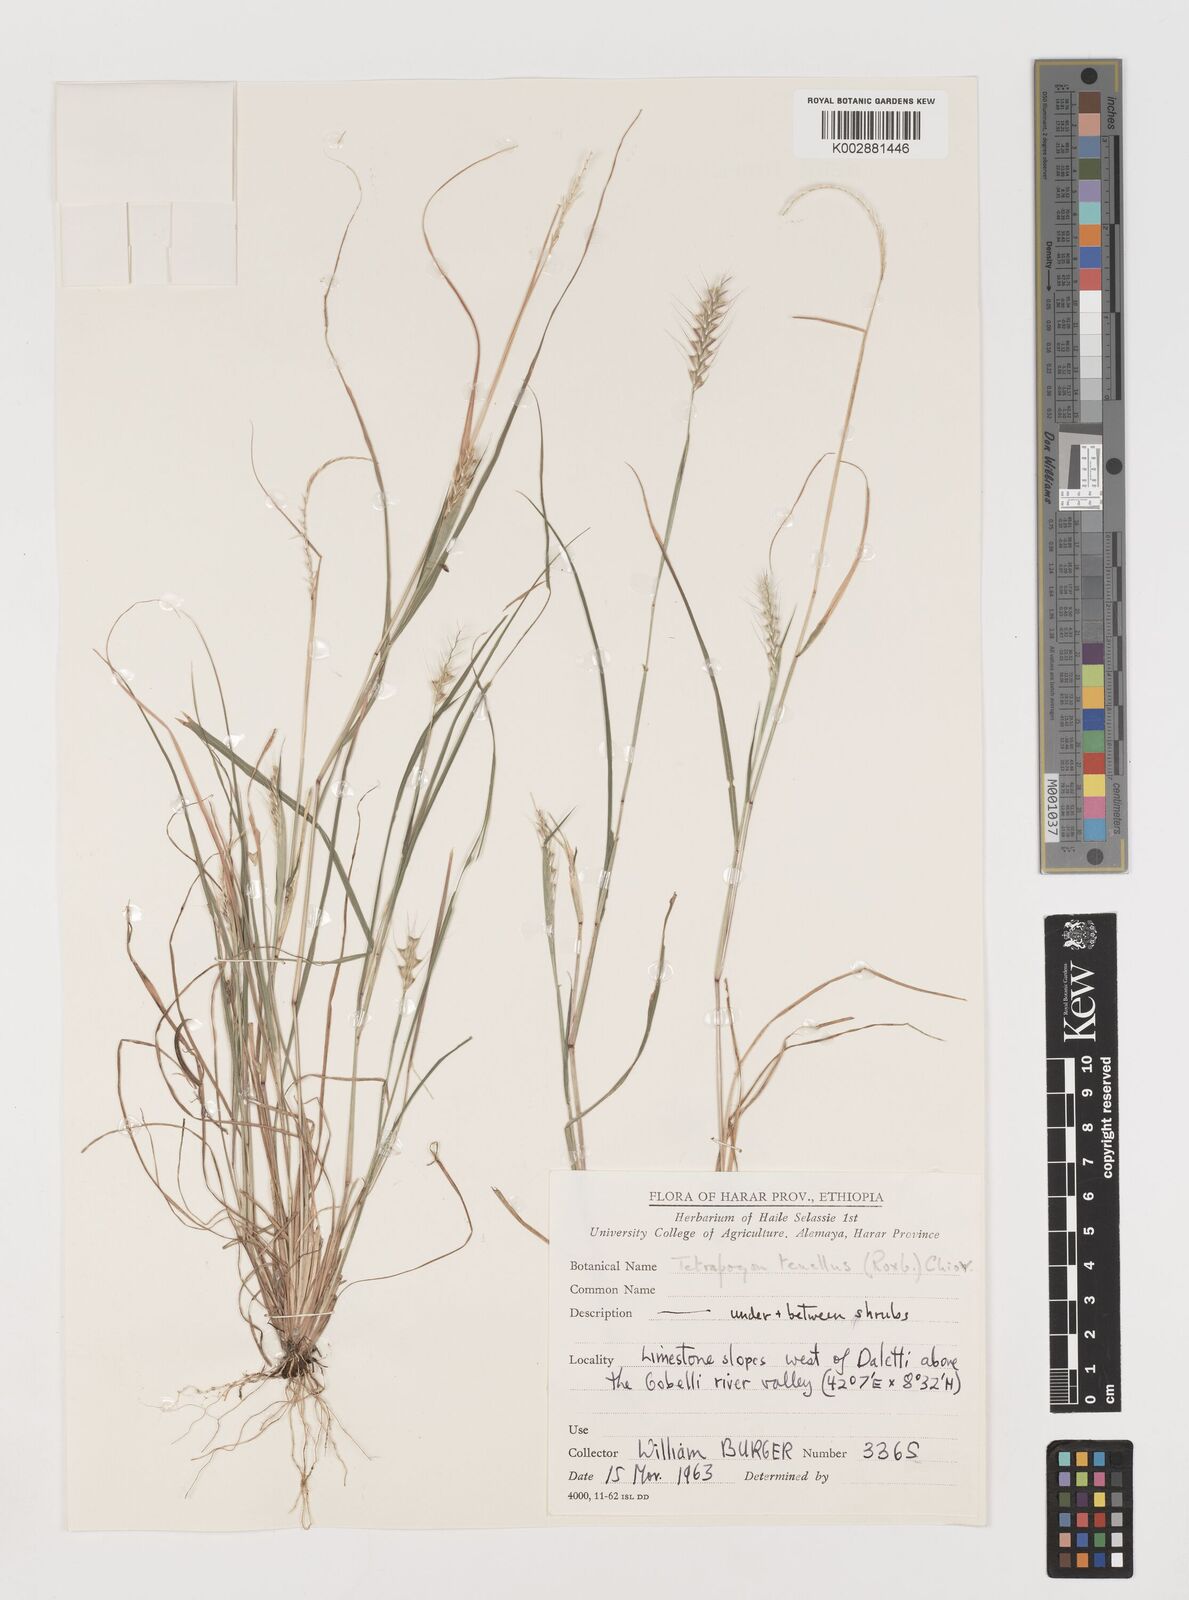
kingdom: Plantae
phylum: Tracheophyta
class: Liliopsida
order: Poales
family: Poaceae
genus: Tetrapogon
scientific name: Tetrapogon tenellus
